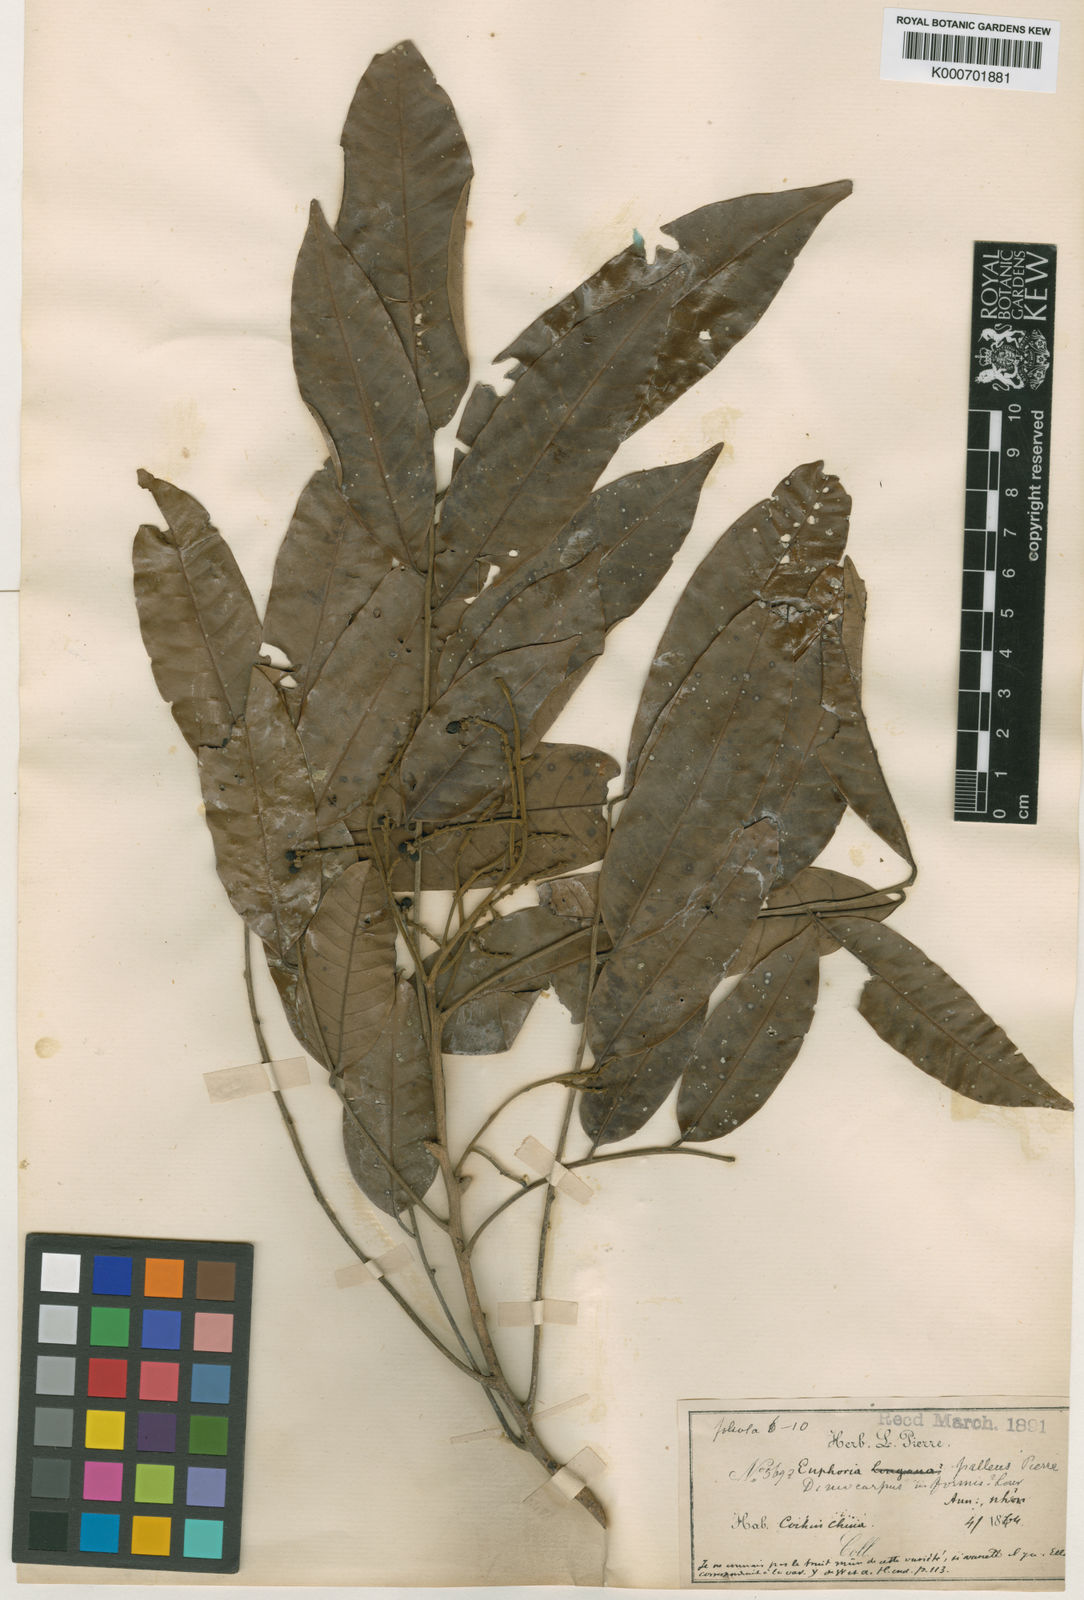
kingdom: Plantae
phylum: Tracheophyta
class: Magnoliopsida
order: Sapindales
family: Sapindaceae
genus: Dimocarpus
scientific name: Dimocarpus longan
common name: Longan
